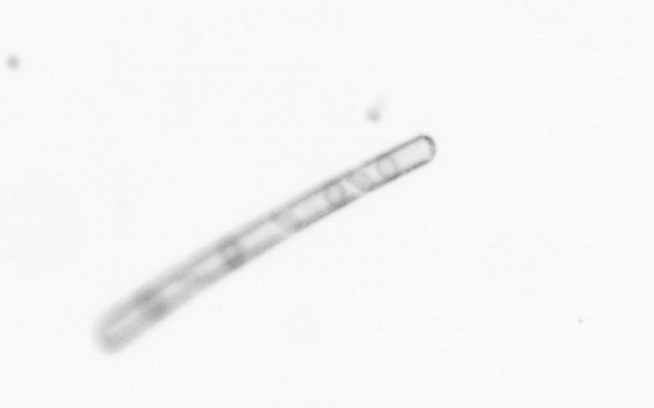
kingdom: Chromista
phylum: Ochrophyta
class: Bacillariophyceae
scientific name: Bacillariophyceae
